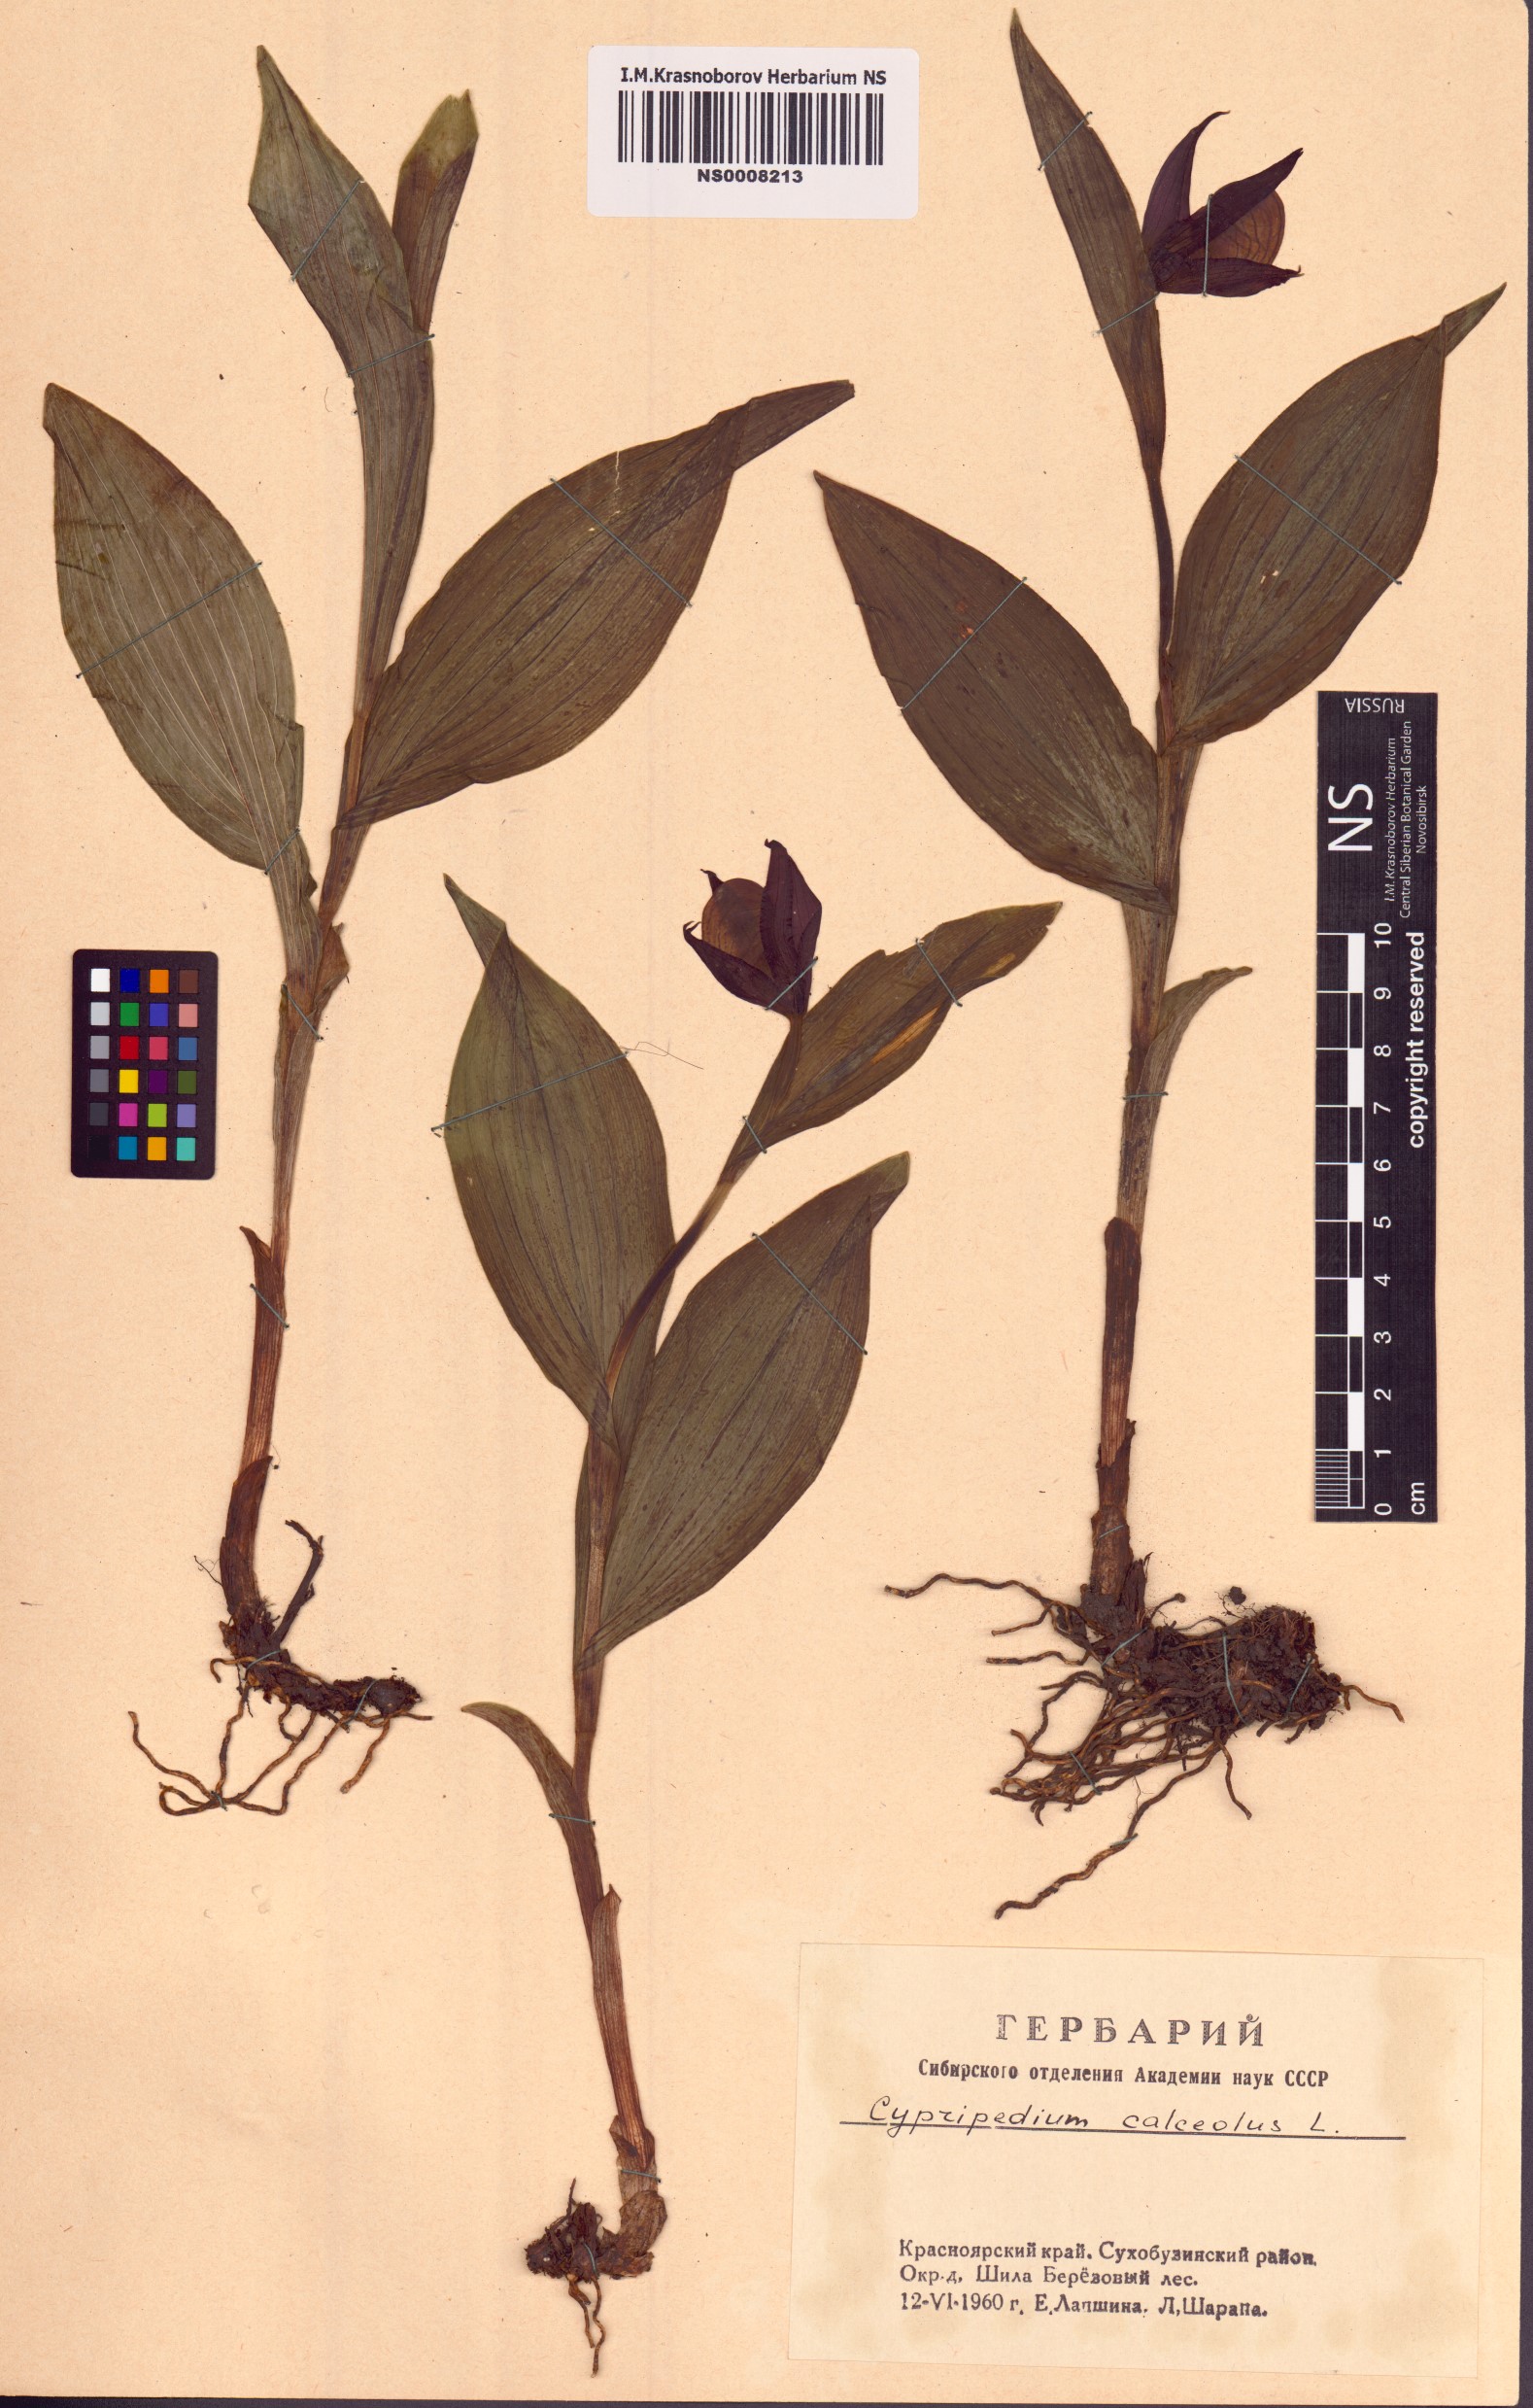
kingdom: Plantae
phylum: Tracheophyta
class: Liliopsida
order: Asparagales
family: Orchidaceae
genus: Cypripedium
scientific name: Cypripedium calceolus
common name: Lady's-slipper
